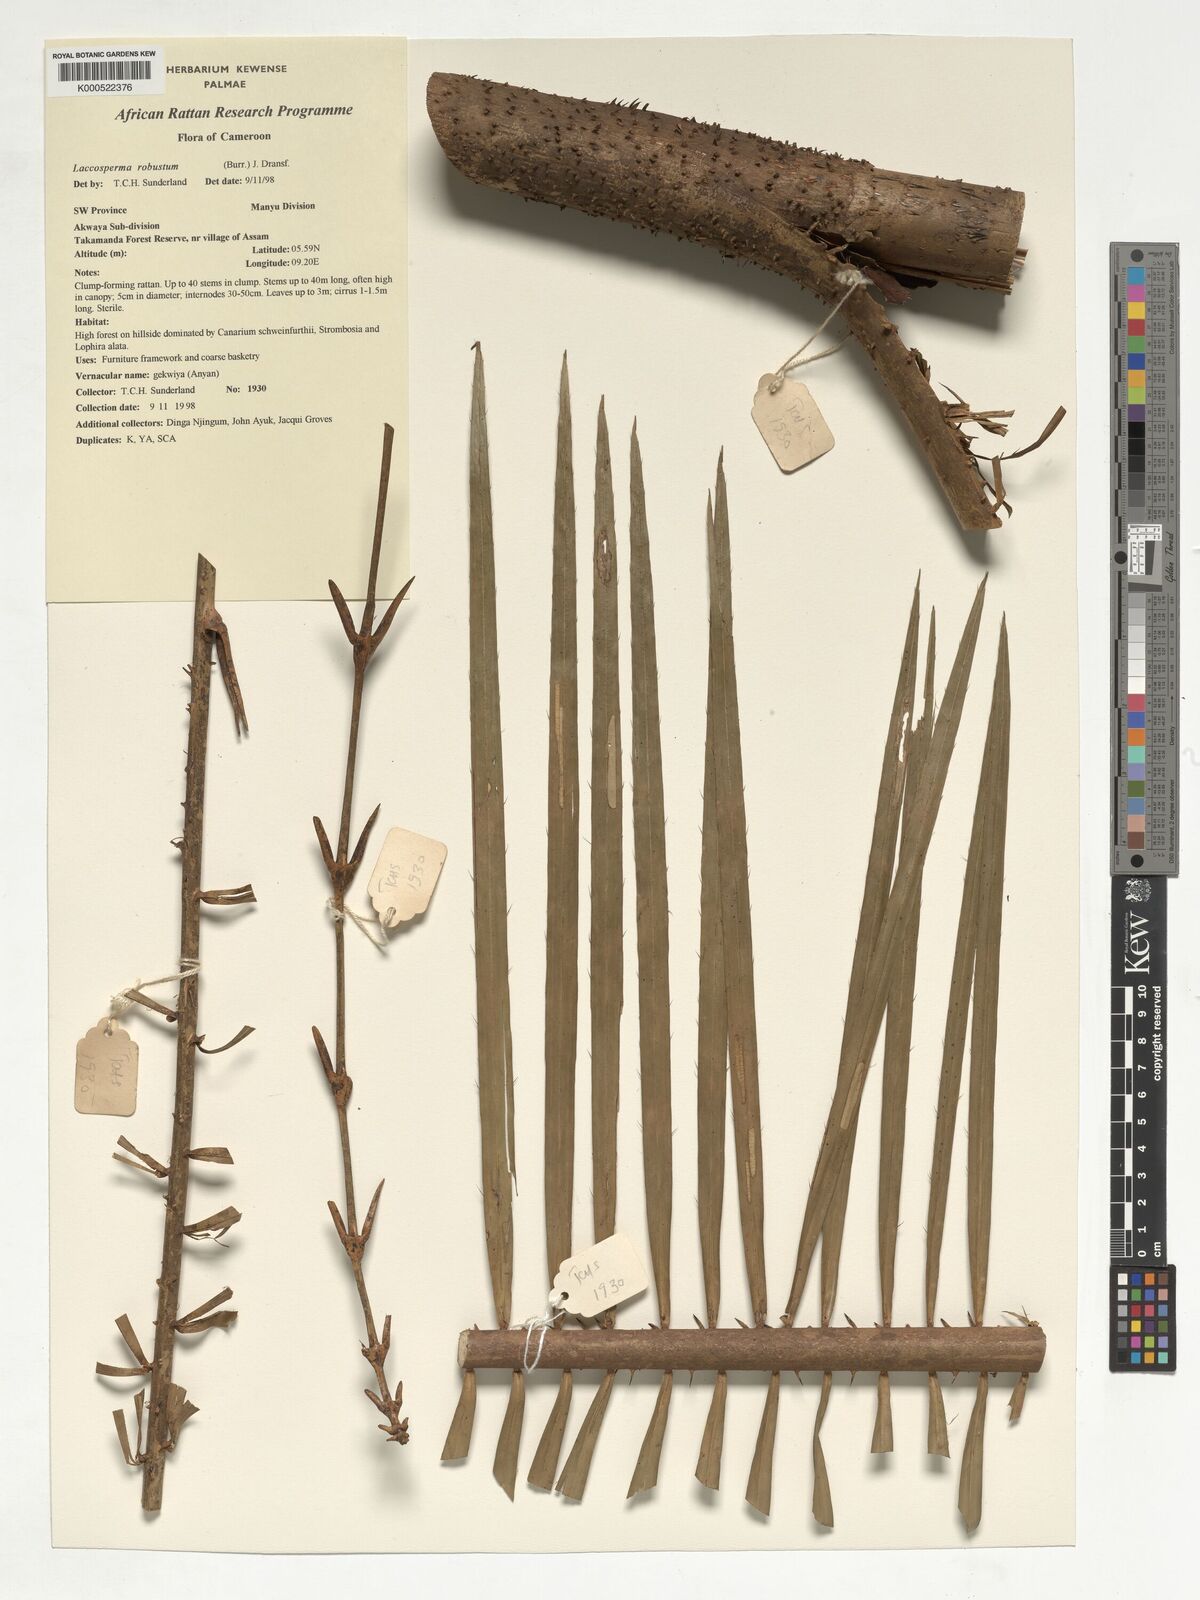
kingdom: Plantae
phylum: Tracheophyta
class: Liliopsida
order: Arecales
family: Arecaceae
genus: Laccosperma
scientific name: Laccosperma robustum
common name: Rattan
